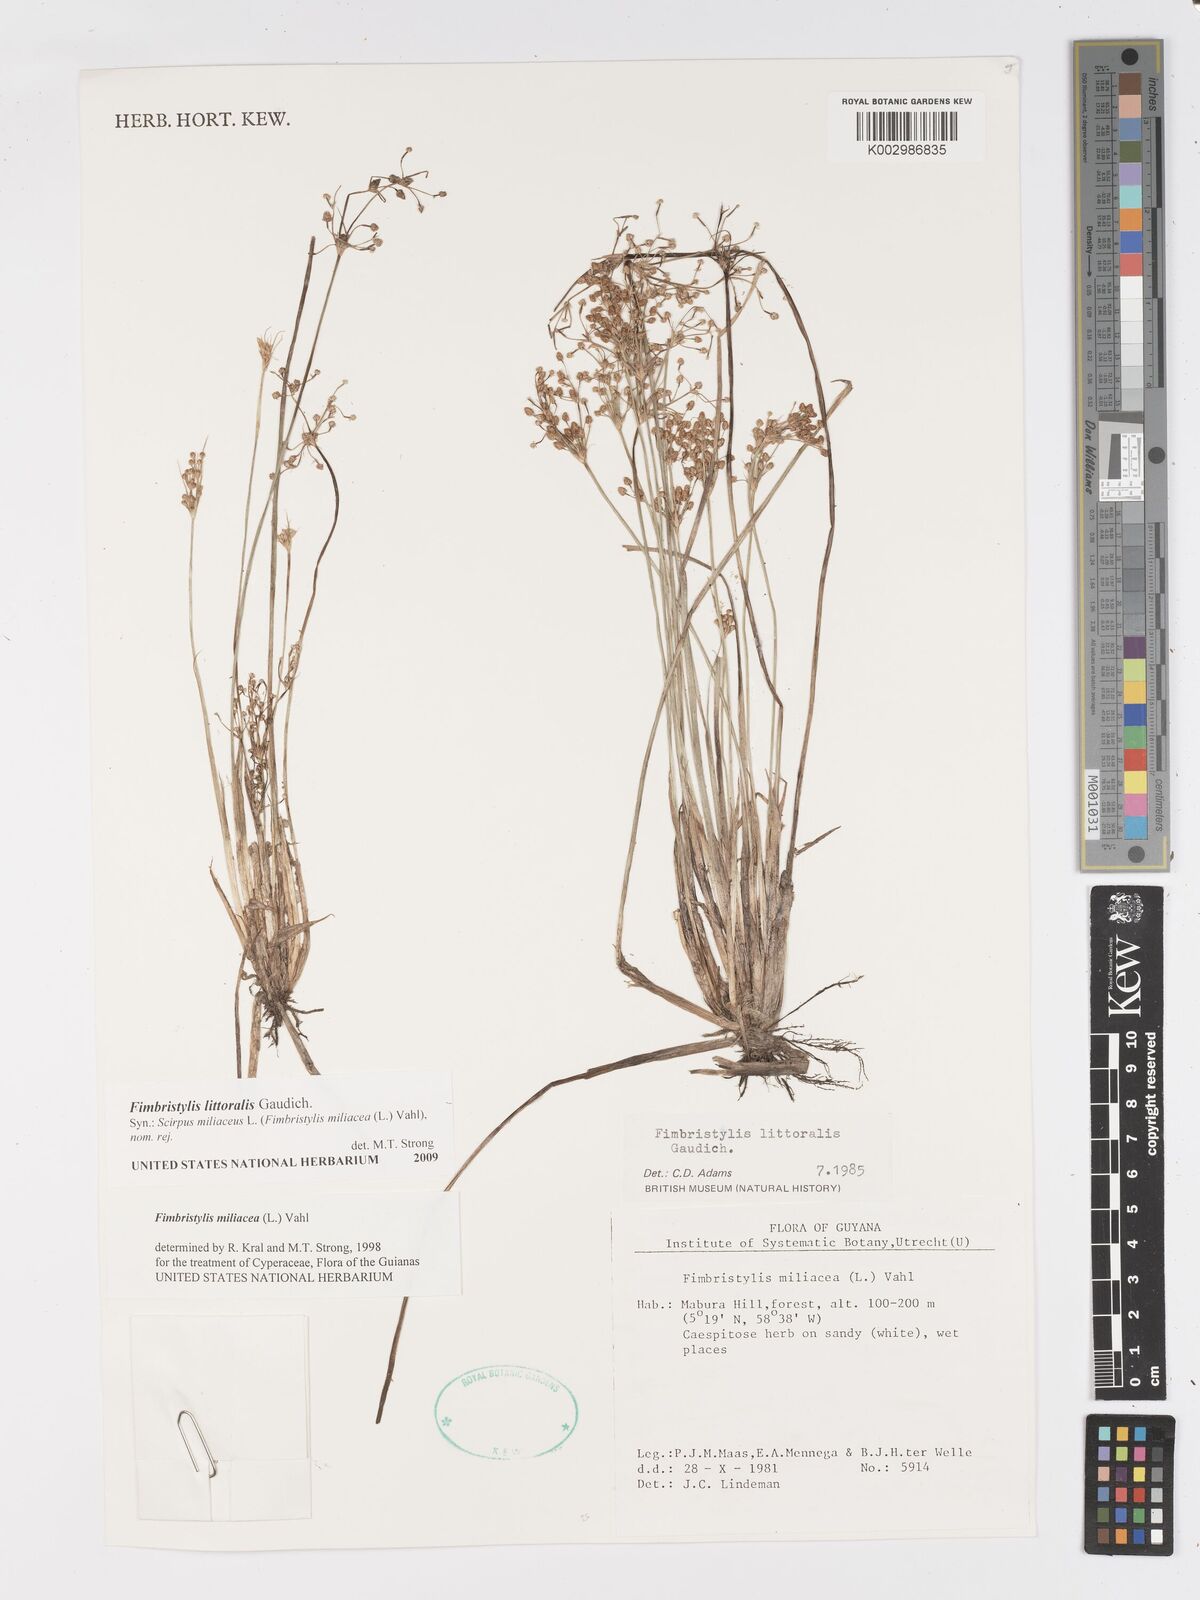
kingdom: Plantae
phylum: Tracheophyta
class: Liliopsida
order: Poales
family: Cyperaceae
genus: Fimbristylis
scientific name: Fimbristylis littoralis
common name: Fimbry
